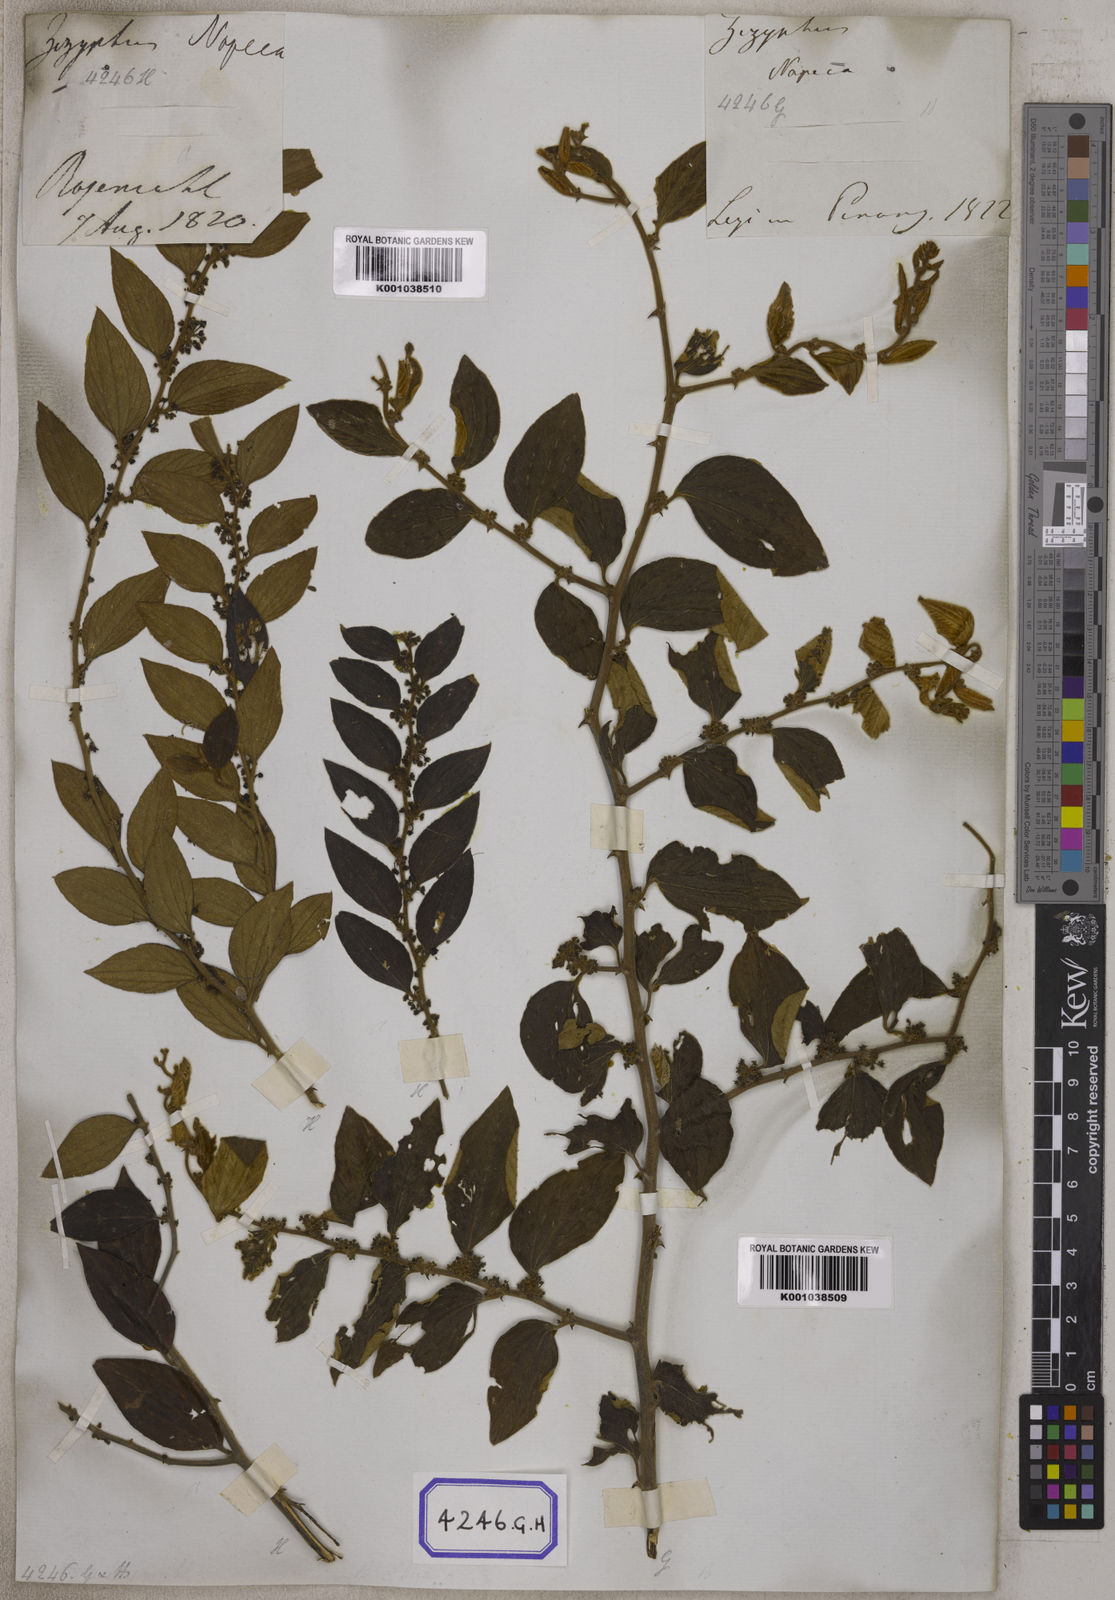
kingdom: Plantae
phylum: Tracheophyta
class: Magnoliopsida
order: Rosales
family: Rhamnaceae
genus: Ziziphus
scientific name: Ziziphus
